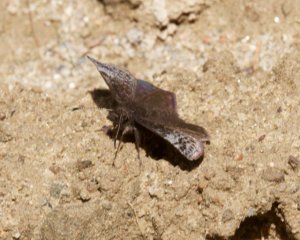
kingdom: Animalia
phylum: Arthropoda
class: Insecta
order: Lepidoptera
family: Hesperiidae
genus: Erynnis
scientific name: Erynnis icelus
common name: Dreamy Duskywing
